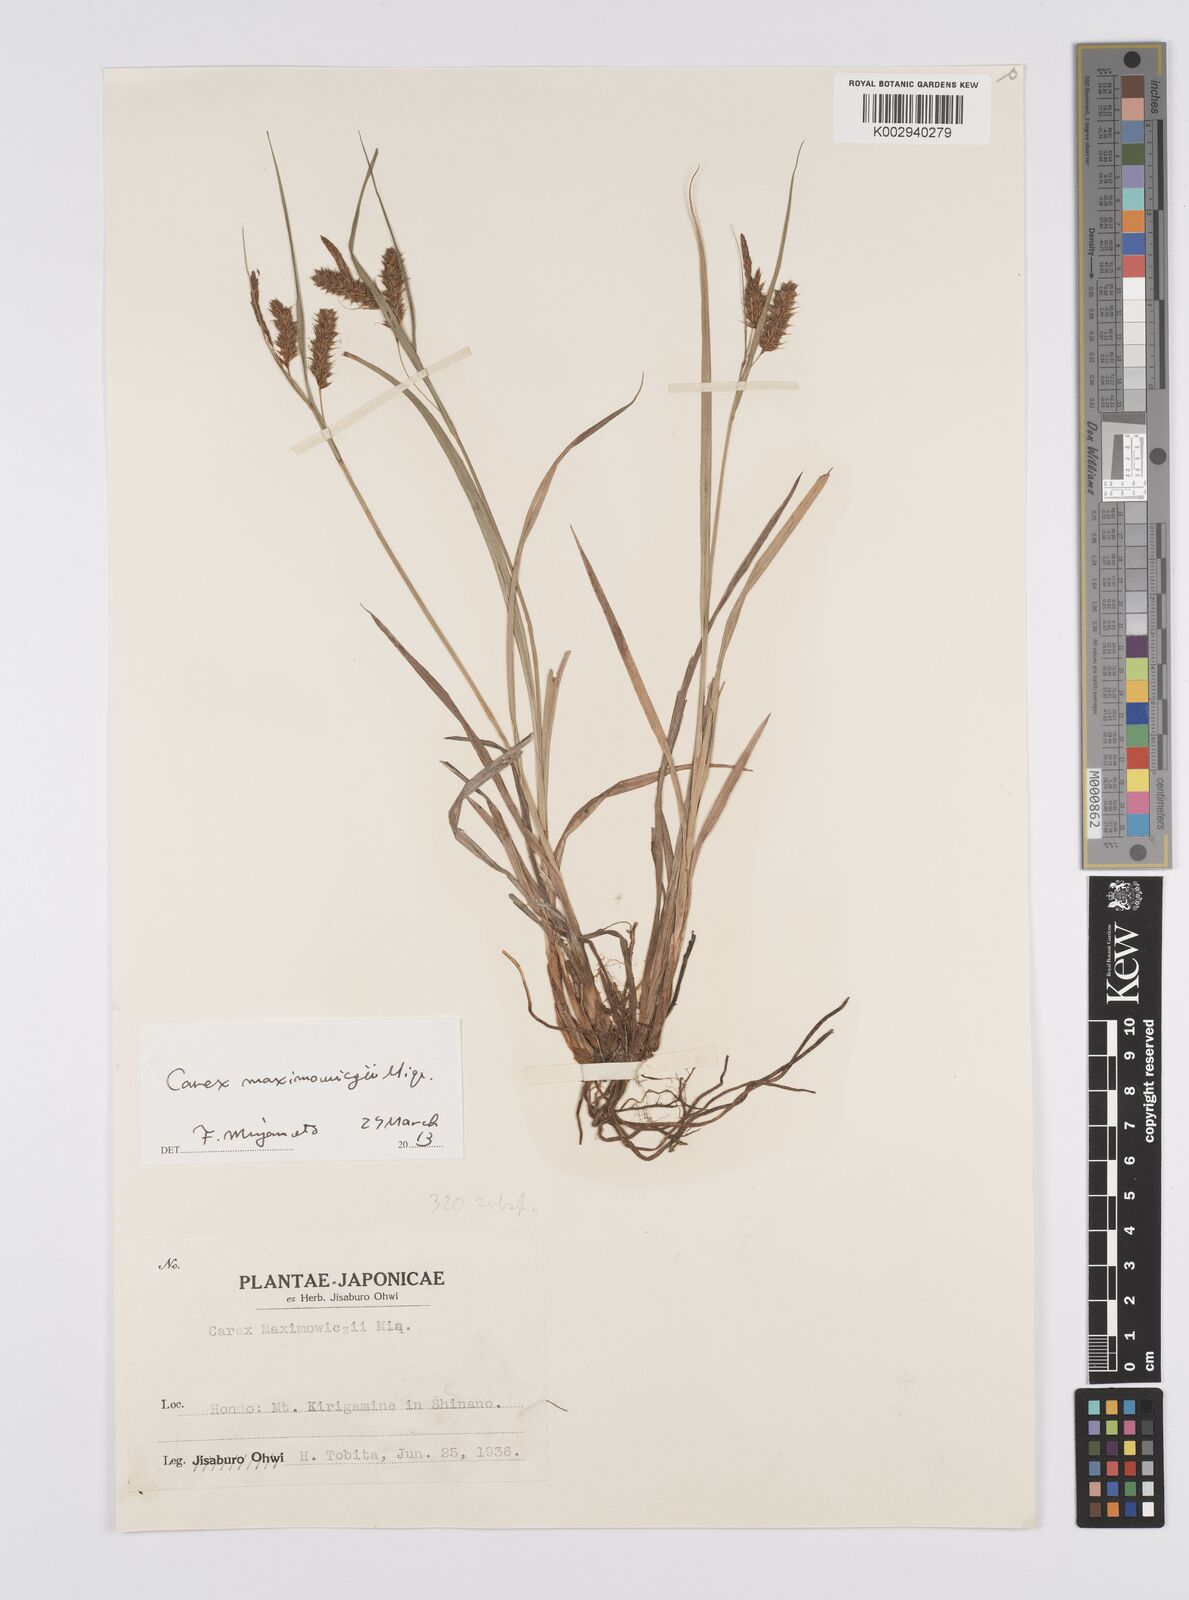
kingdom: Plantae
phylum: Tracheophyta
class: Liliopsida
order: Poales
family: Cyperaceae
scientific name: Cyperaceae
